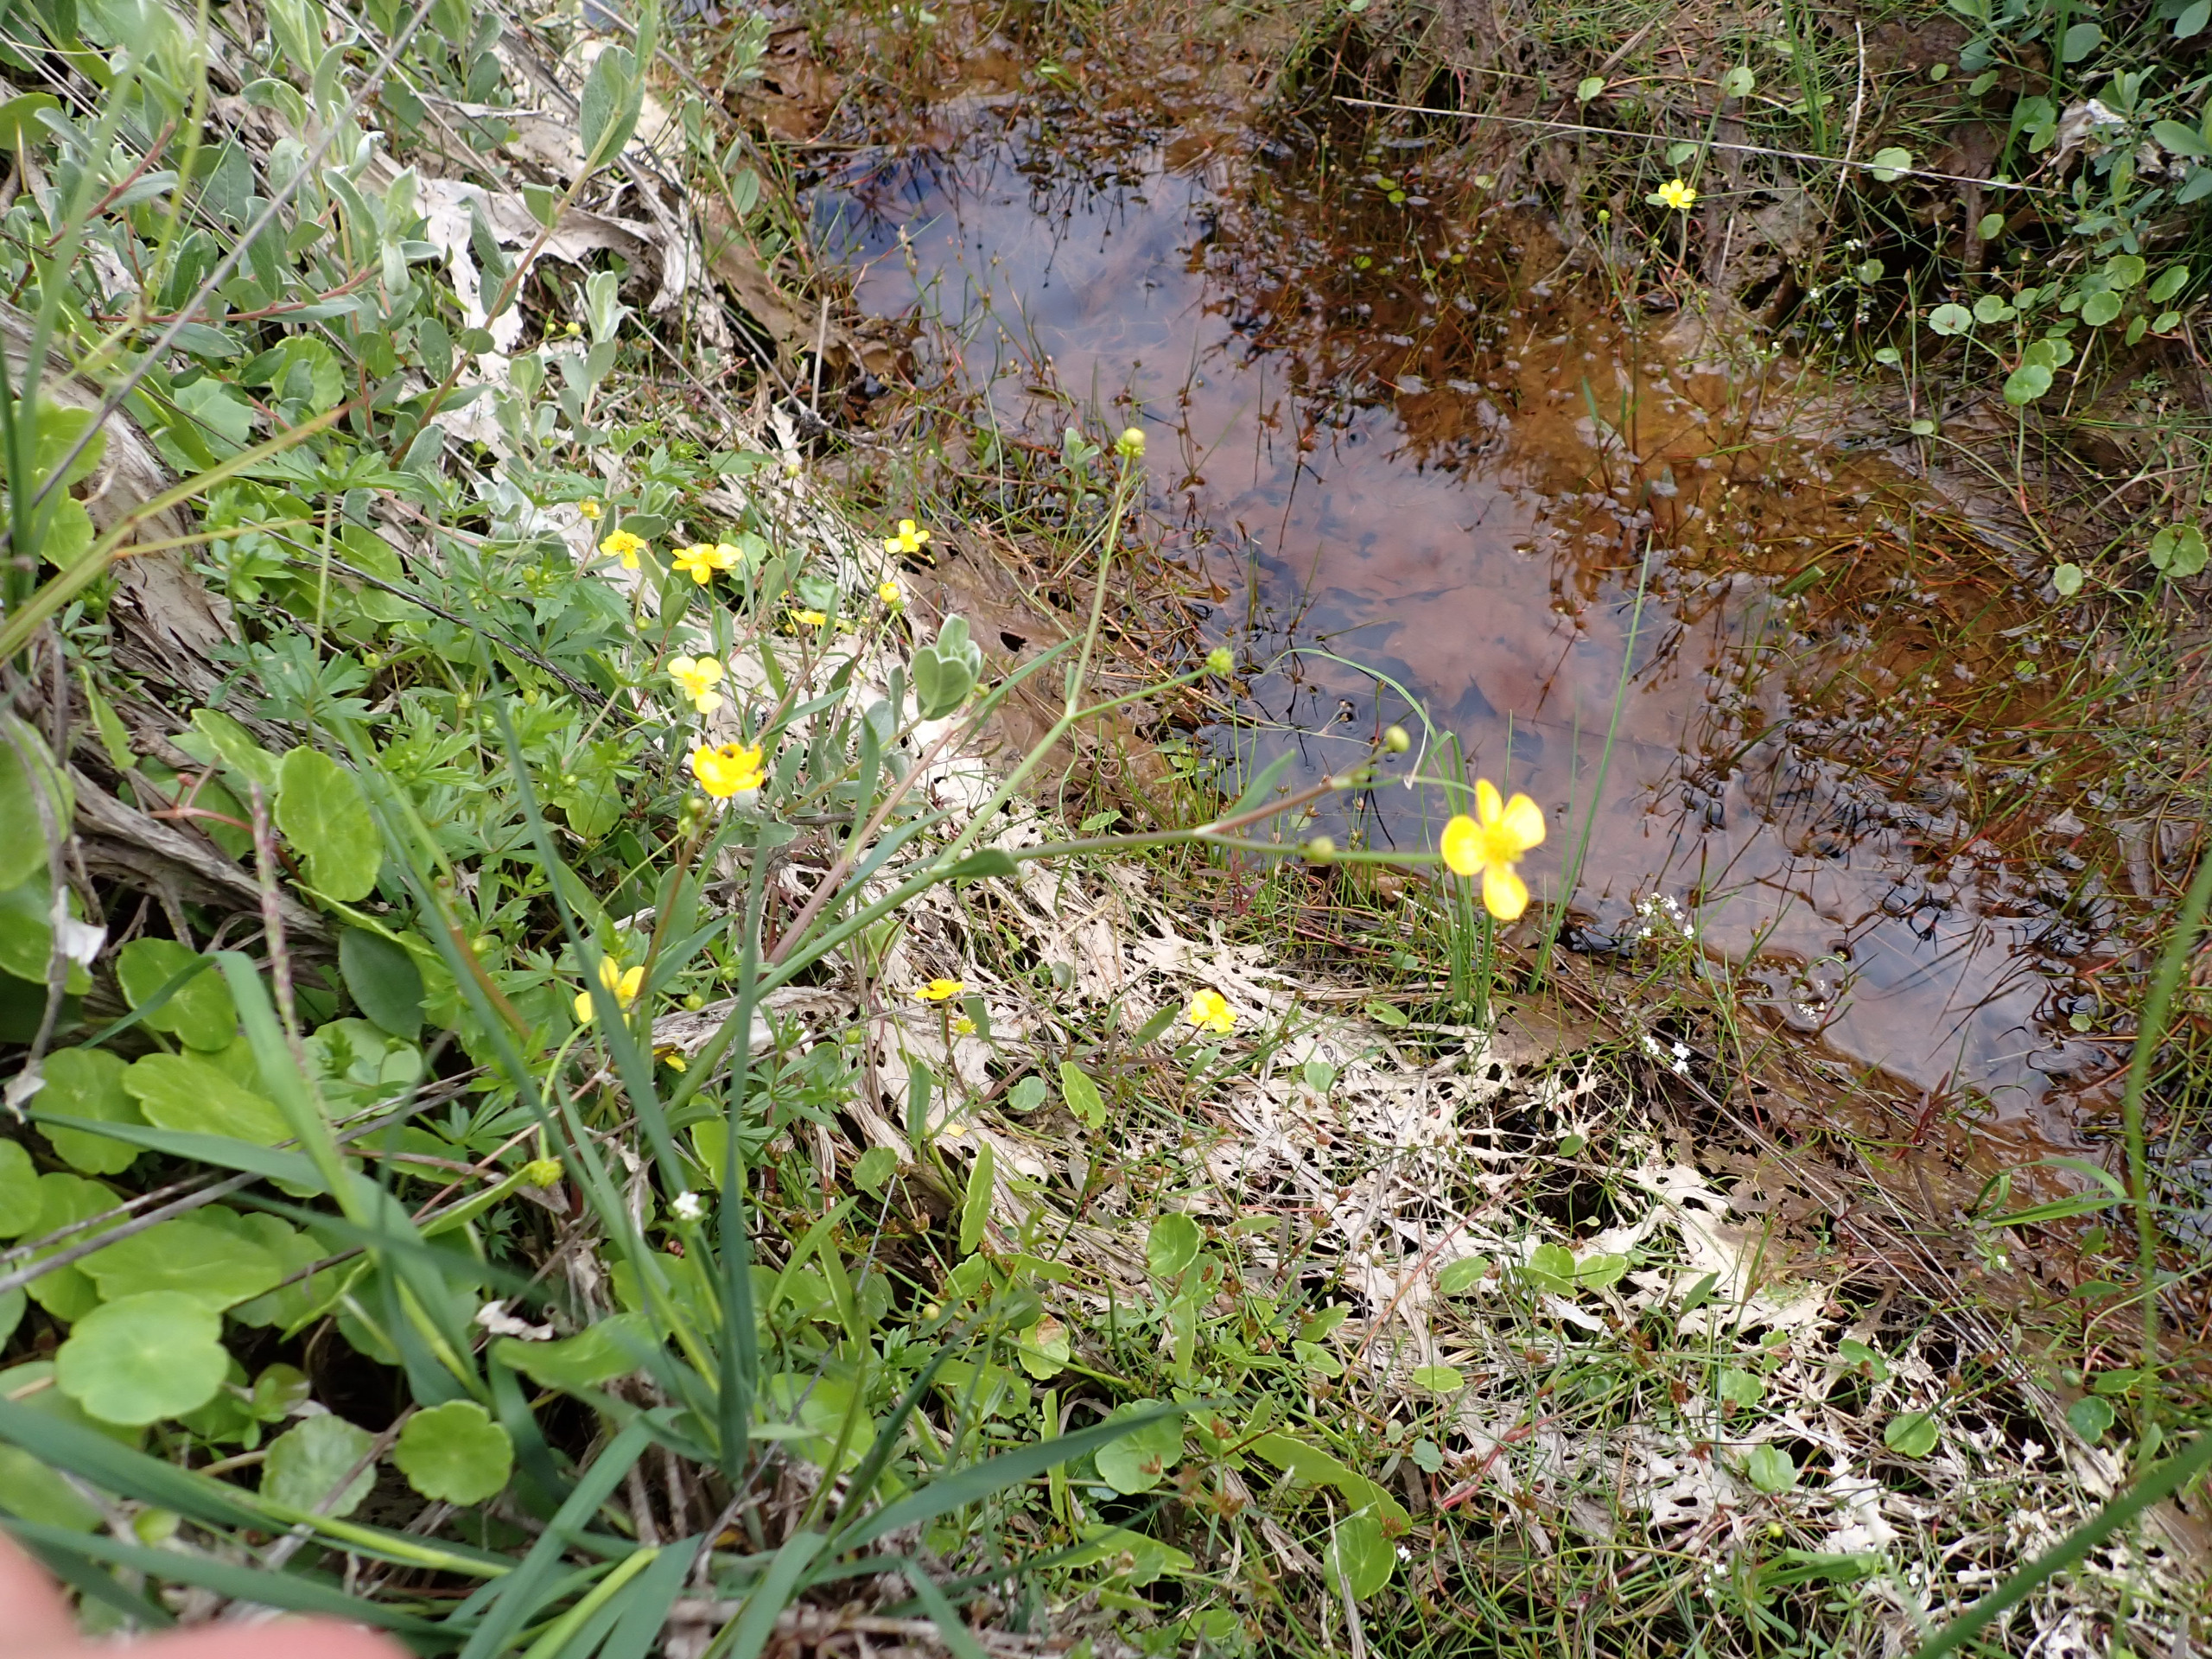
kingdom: Plantae
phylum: Tracheophyta
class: Magnoliopsida
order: Ranunculales
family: Ranunculaceae
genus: Ranunculus
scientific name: Ranunculus flammula
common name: Kær-ranunkel
